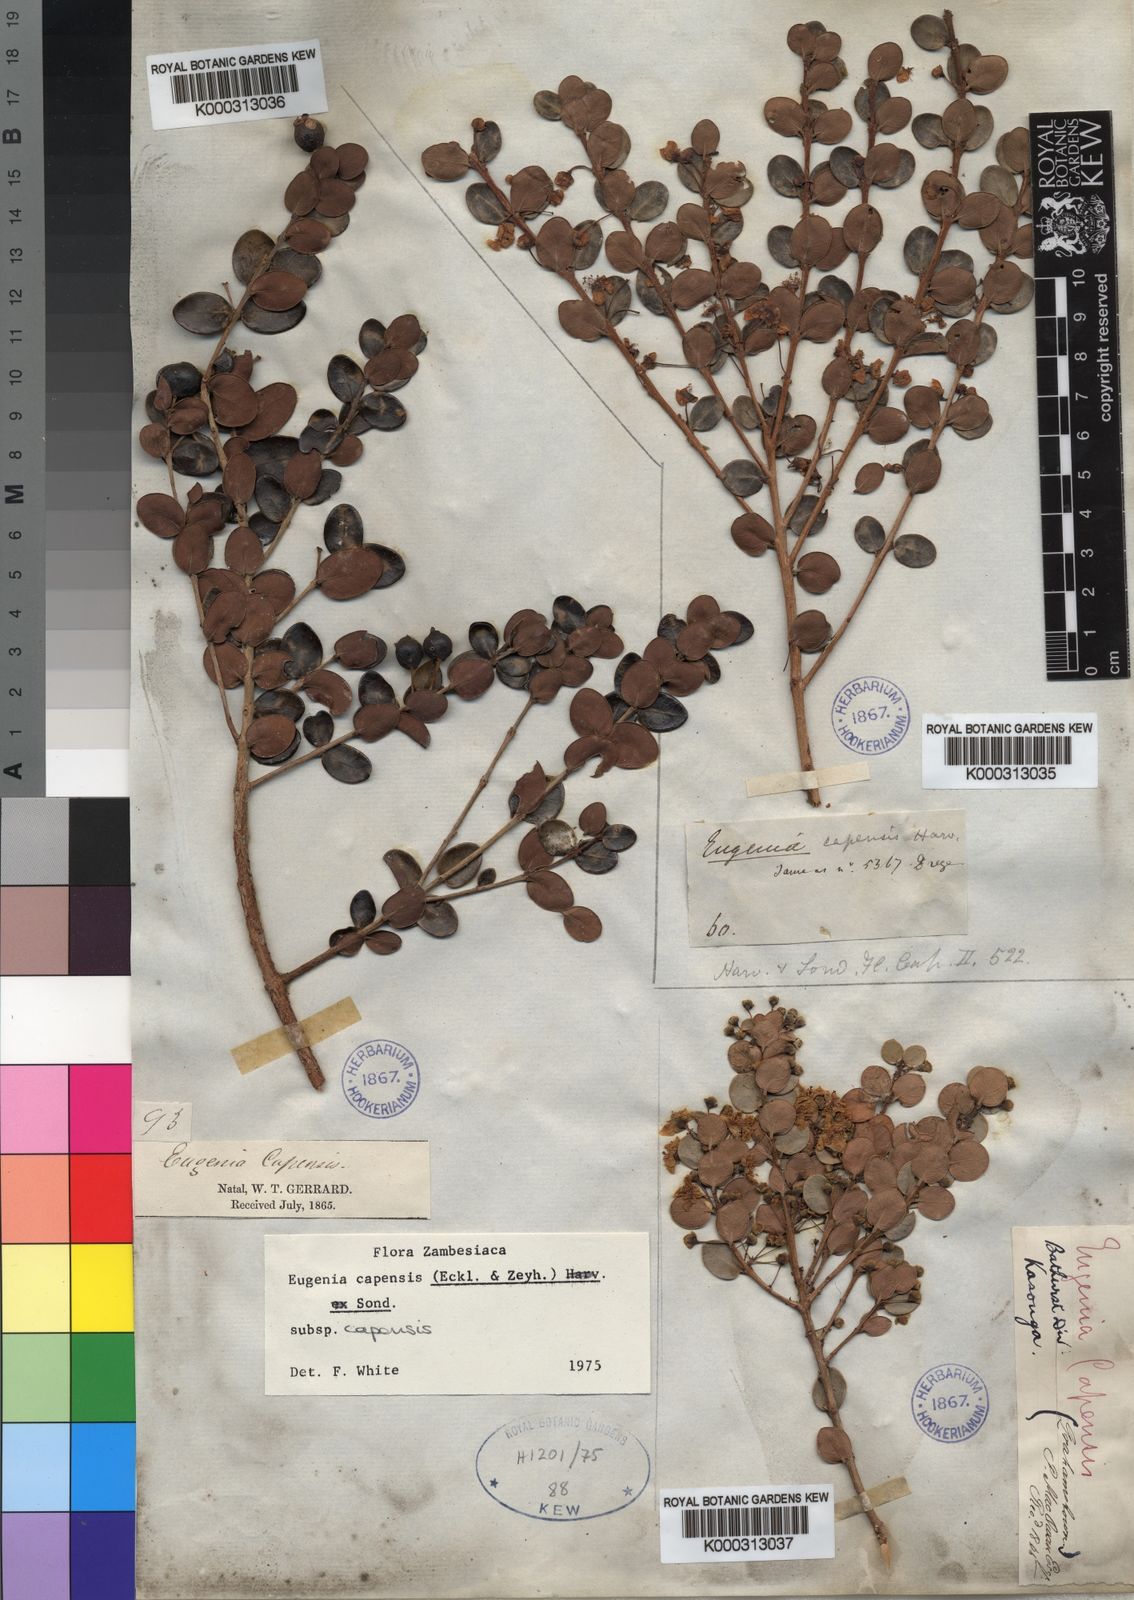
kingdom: Plantae
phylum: Tracheophyta
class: Magnoliopsida
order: Myrtales
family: Myrtaceae
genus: Eugenia
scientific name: Eugenia capensis
